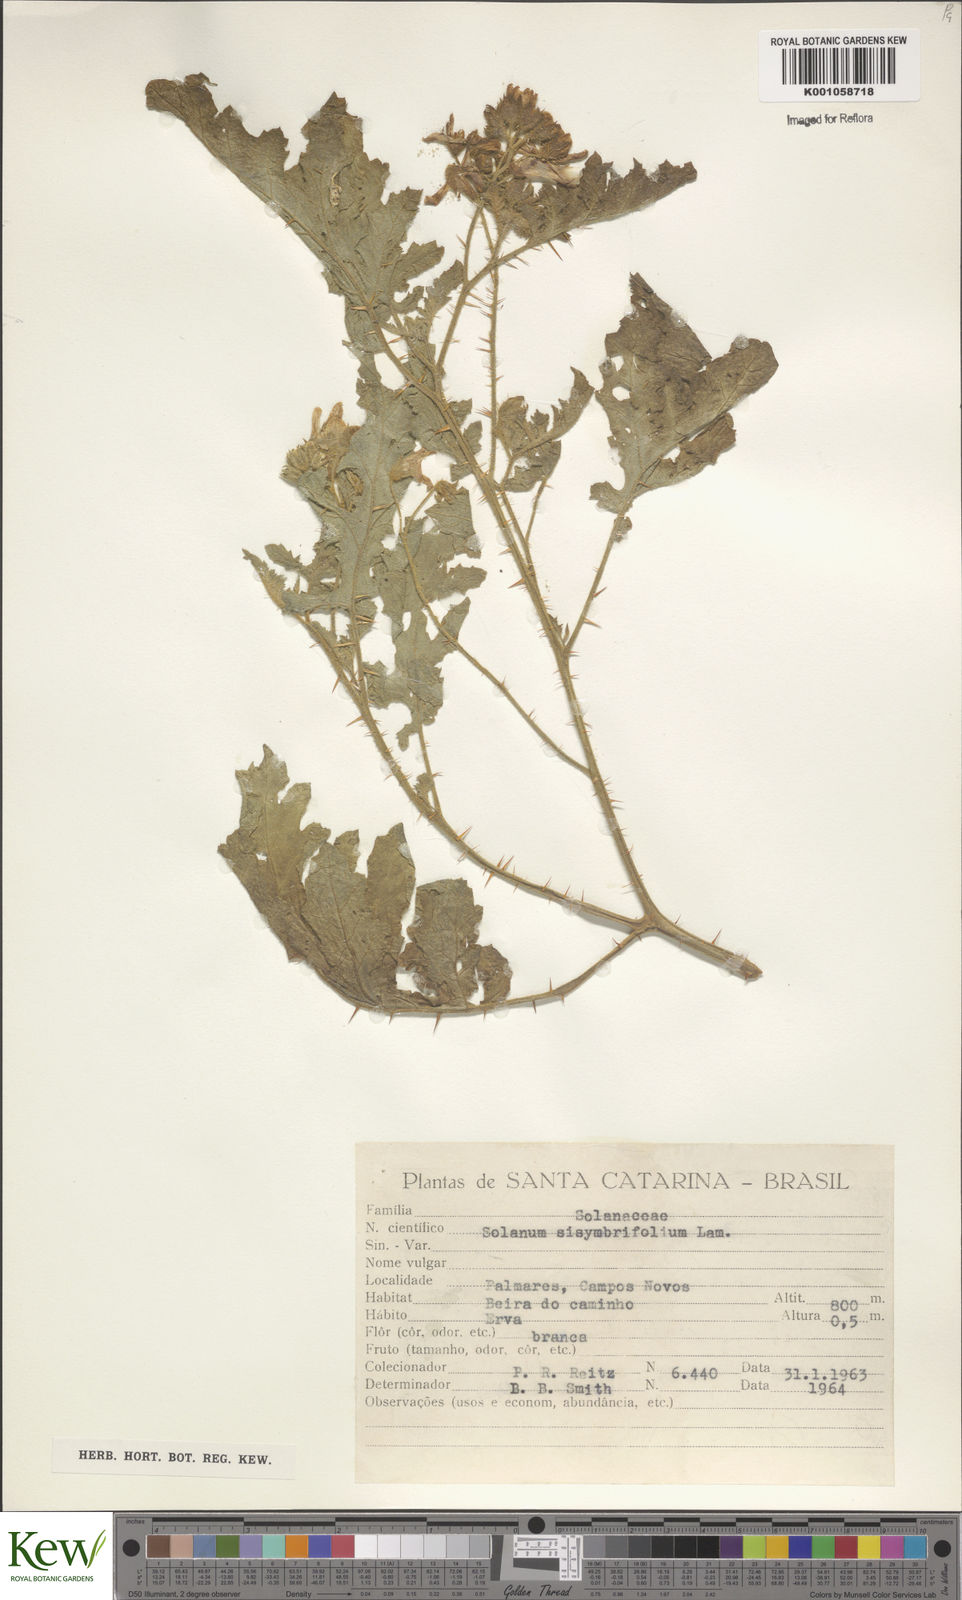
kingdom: Plantae
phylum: Tracheophyta
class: Magnoliopsida
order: Solanales
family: Solanaceae
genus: Solanum
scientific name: Solanum sisymbriifolium
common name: Red buffalo-bur
